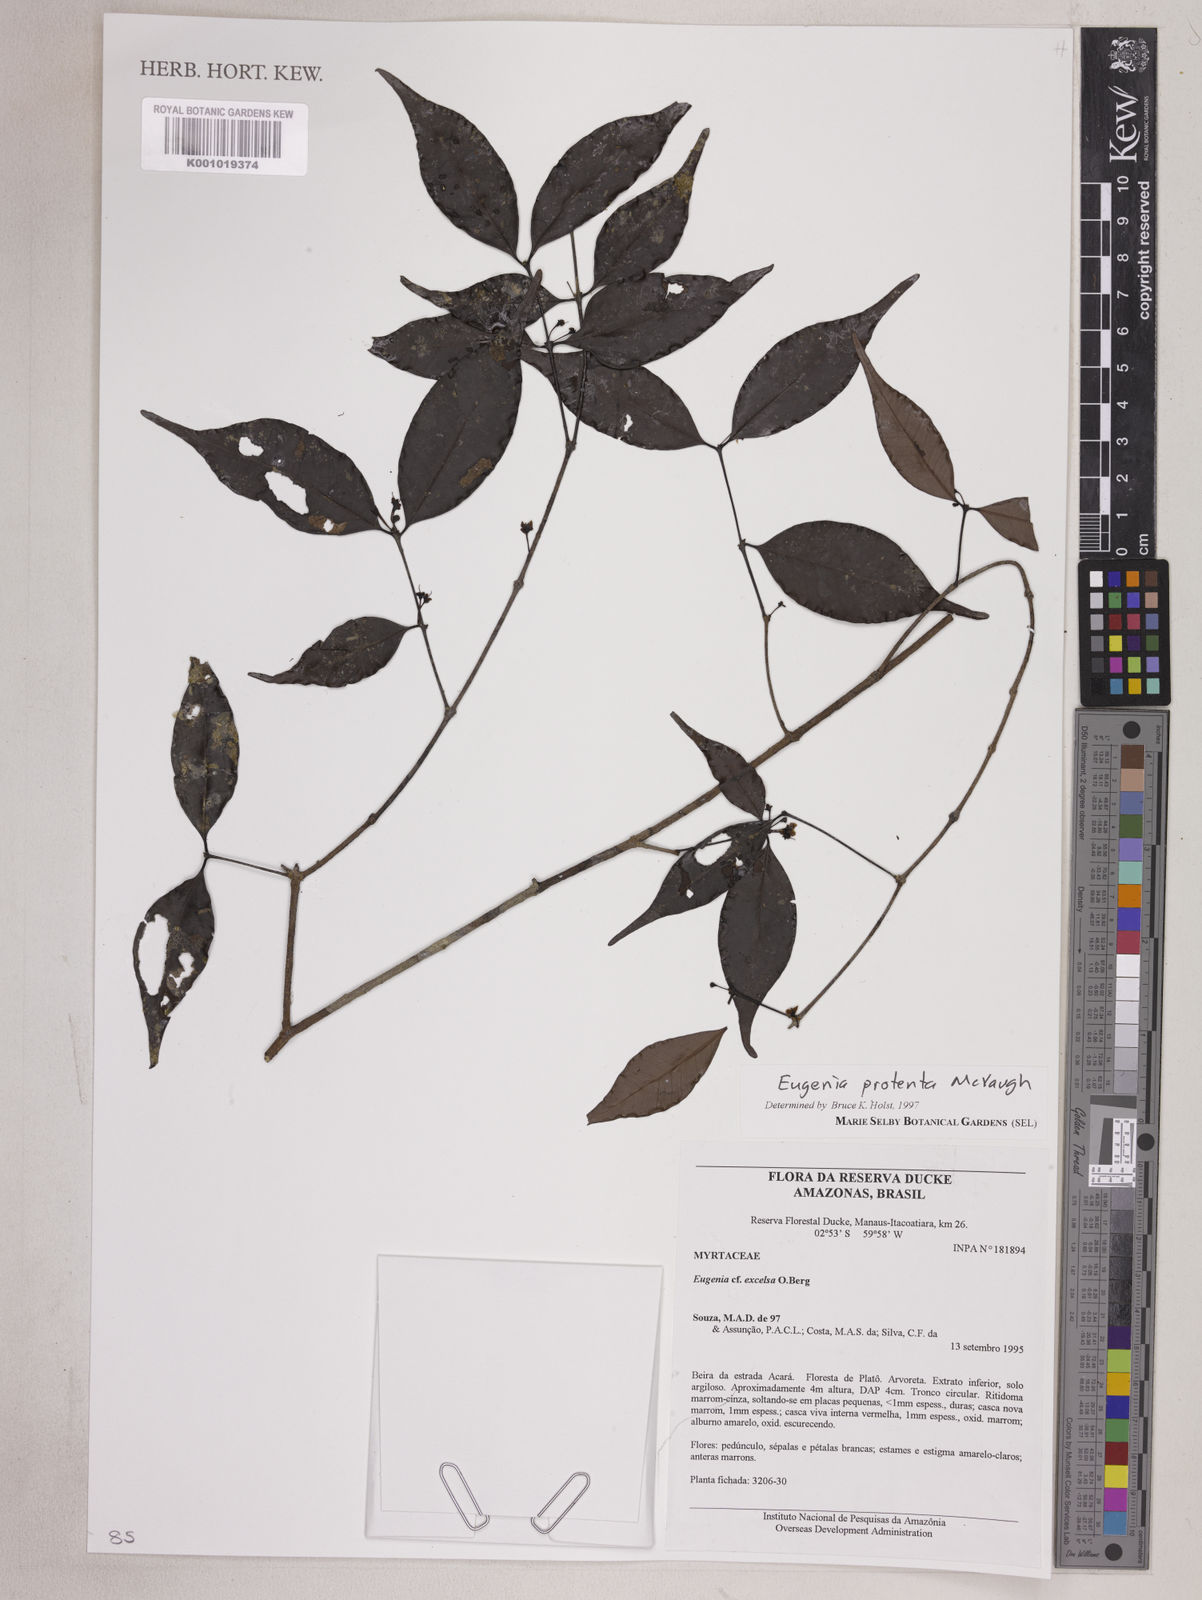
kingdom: Plantae
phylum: Tracheophyta
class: Magnoliopsida
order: Myrtales
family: Myrtaceae
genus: Eugenia
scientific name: Eugenia protenta
